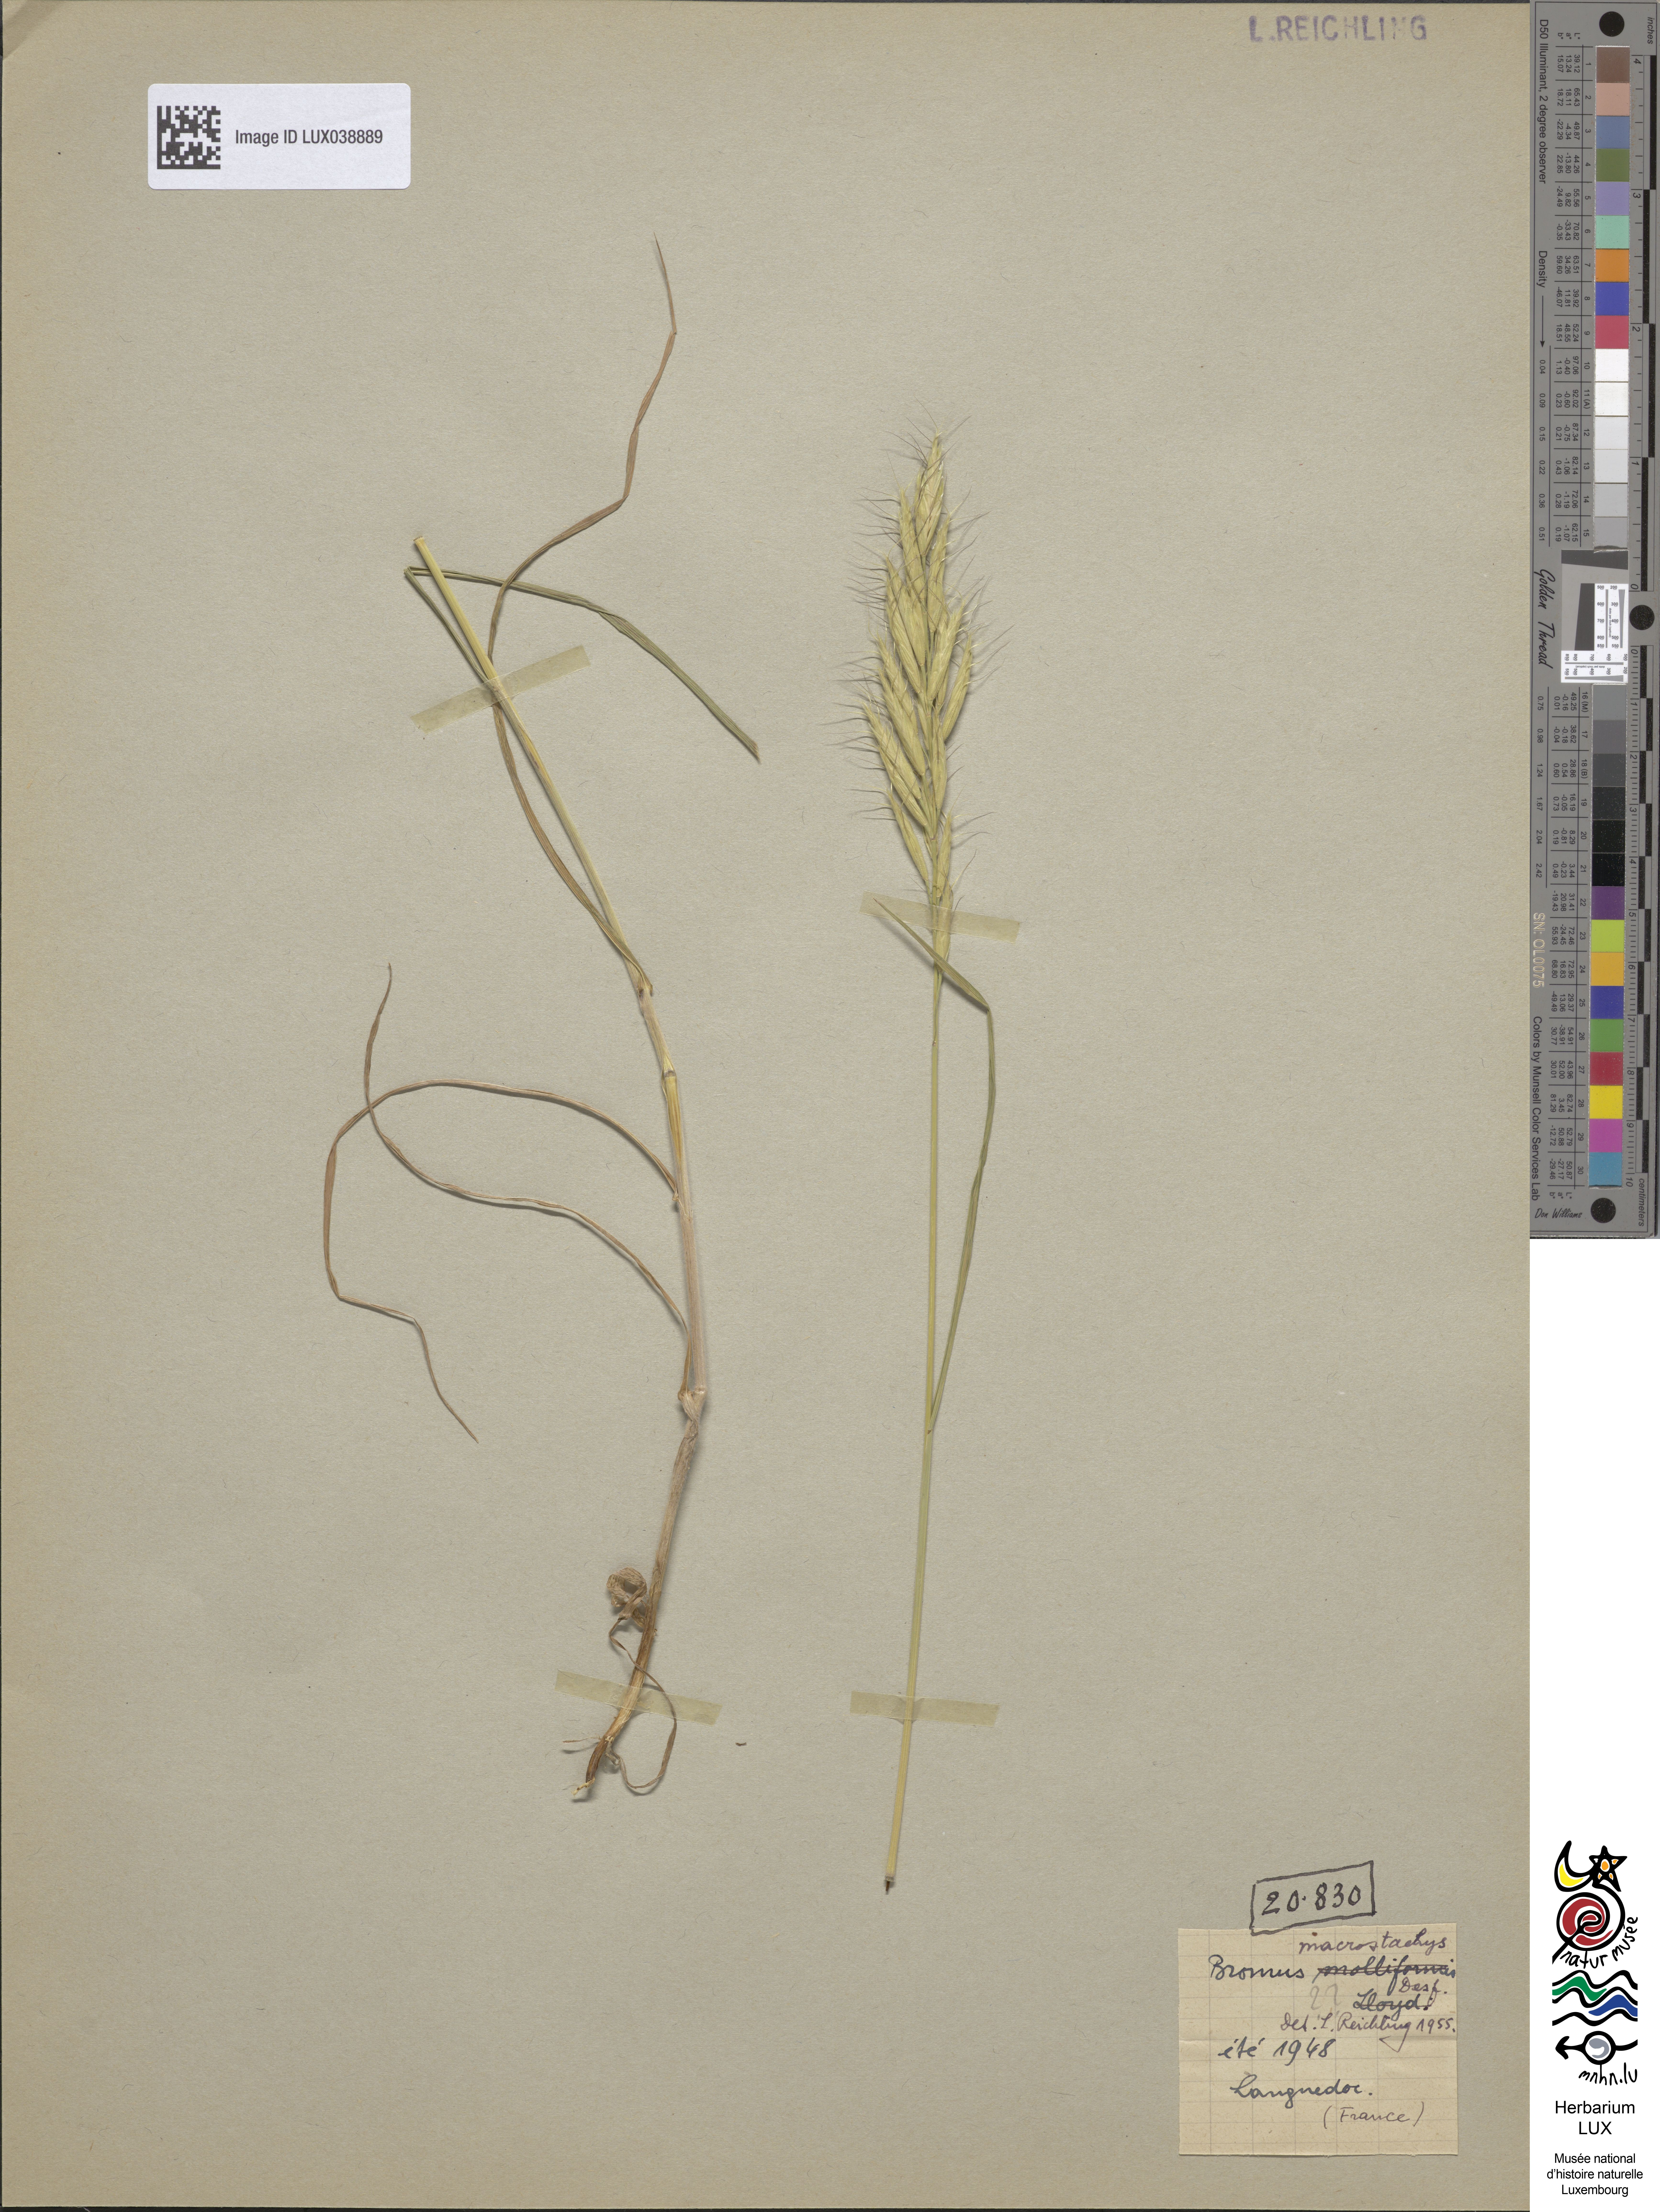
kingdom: Plantae
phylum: Tracheophyta
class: Liliopsida
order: Poales
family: Poaceae
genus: Bromus
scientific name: Bromus lanceolatus
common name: Mediterranean brome
